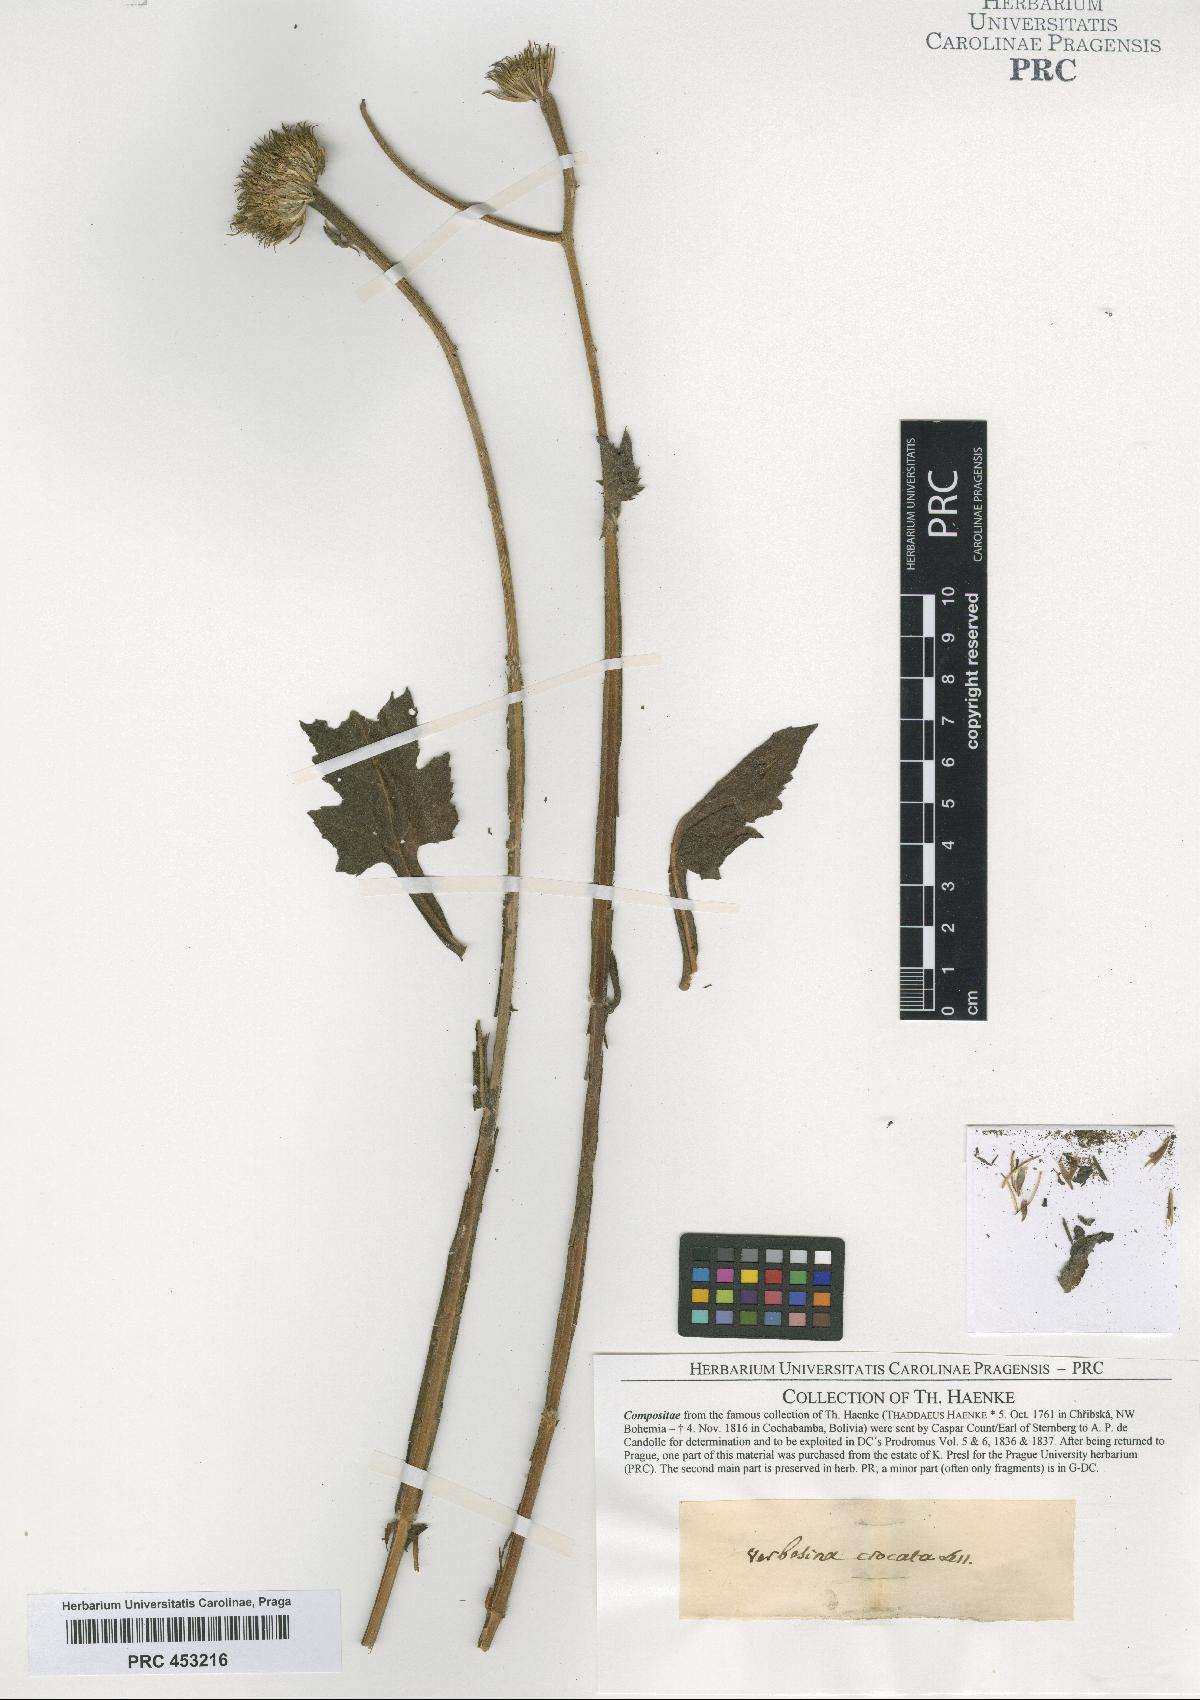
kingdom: Plantae
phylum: Tracheophyta
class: Magnoliopsida
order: Asterales
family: Asteraceae
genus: Verbesina
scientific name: Verbesina crocata
